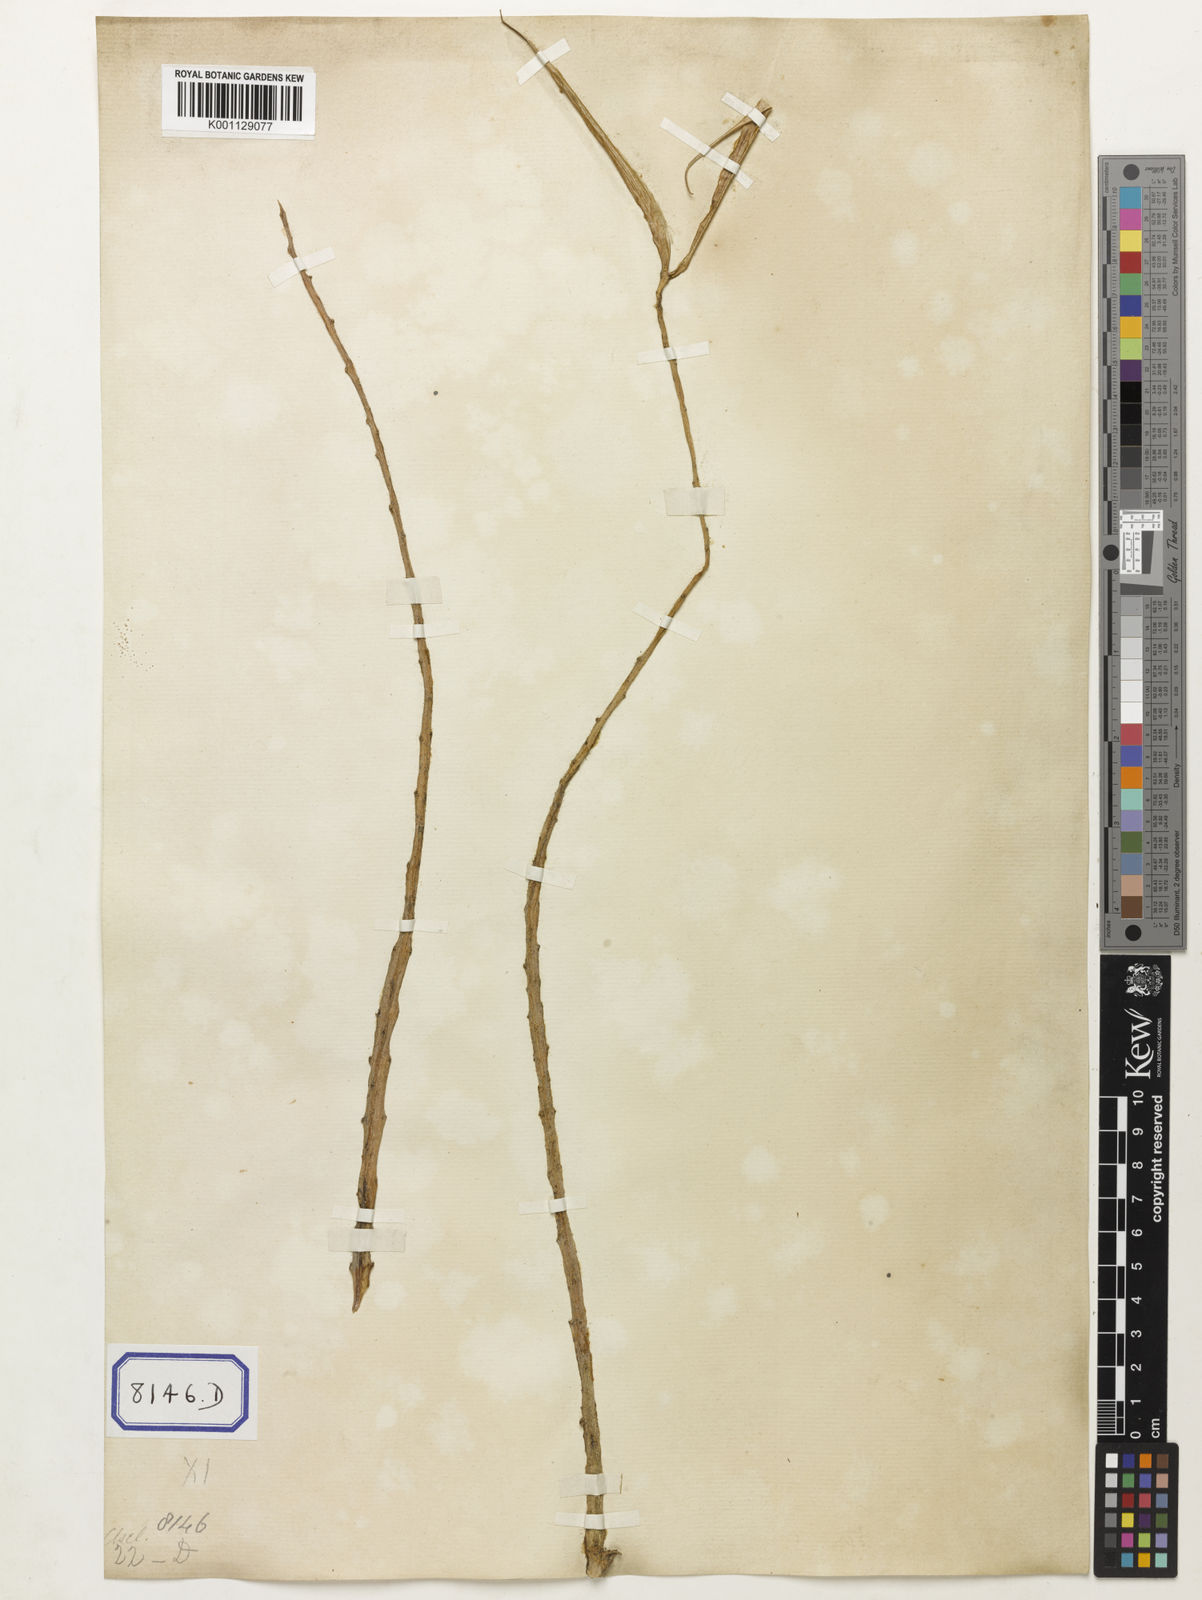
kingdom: Plantae
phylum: Tracheophyta
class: Magnoliopsida
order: Gentianales
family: Apocynaceae
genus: Caralluma
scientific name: Caralluma
